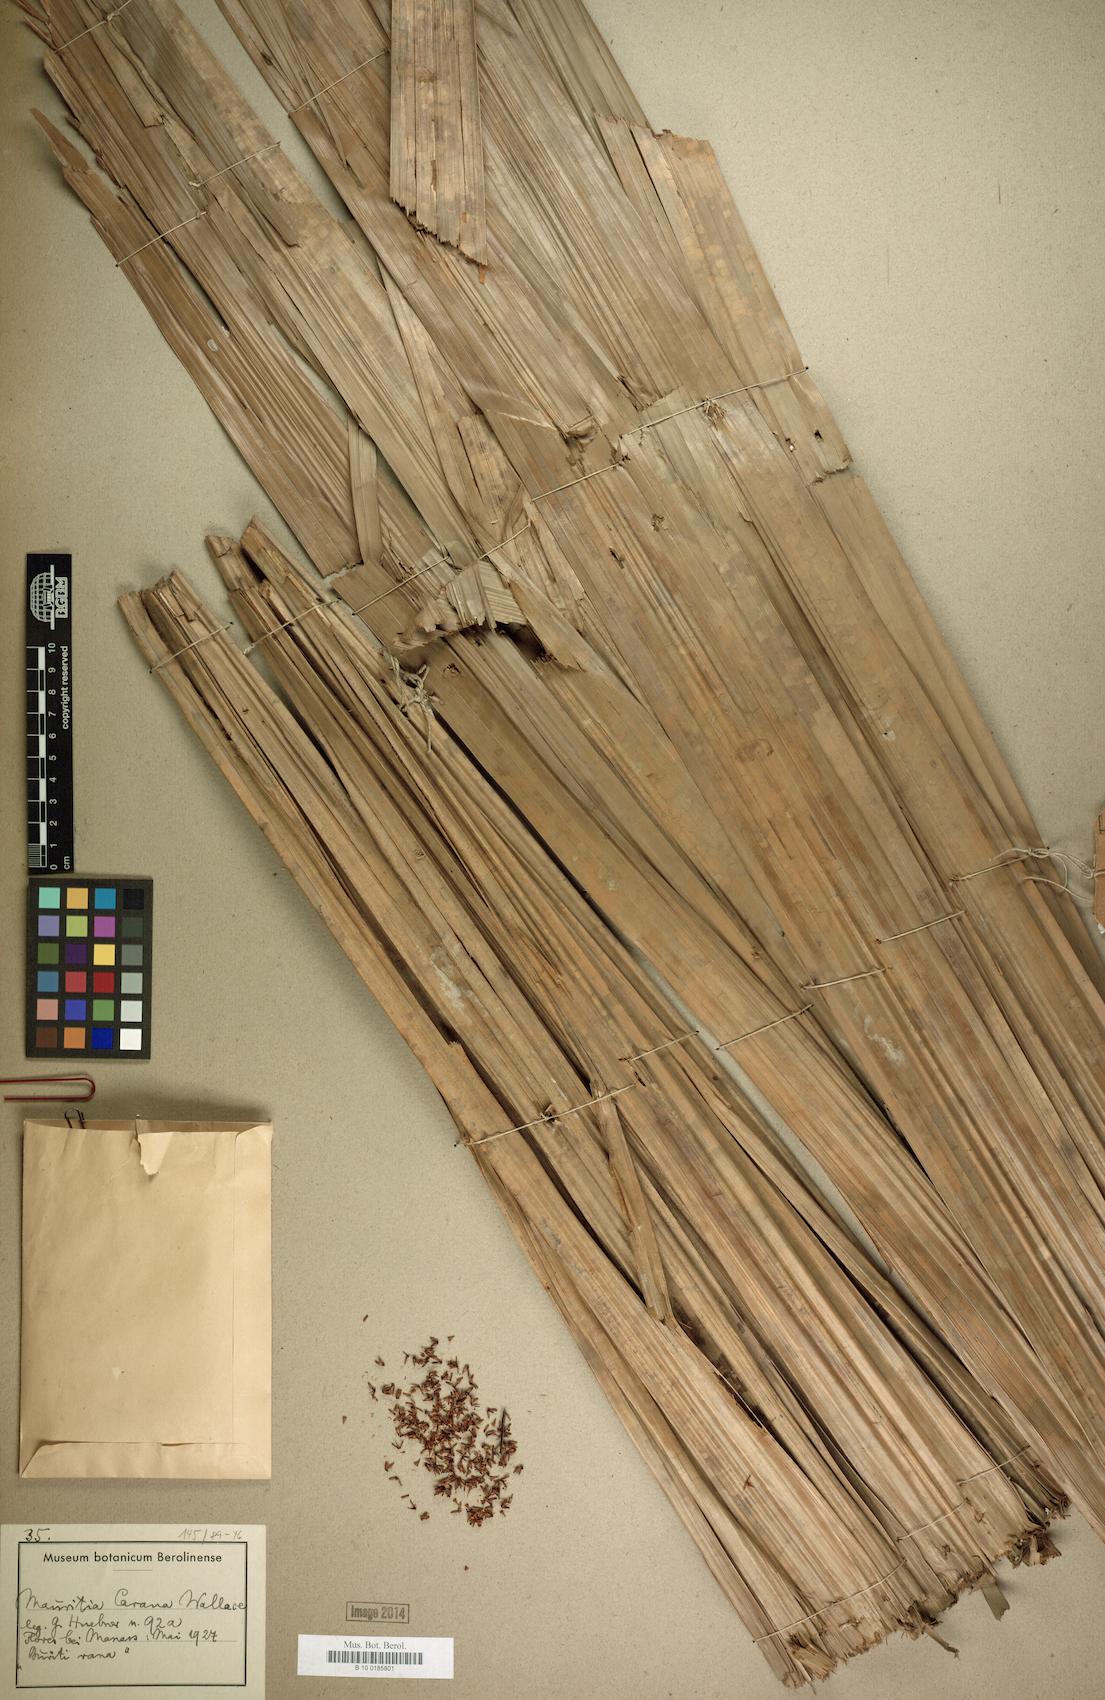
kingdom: Plantae
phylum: Tracheophyta
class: Liliopsida
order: Arecales
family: Arecaceae
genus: Mauritia
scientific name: Mauritia carana
